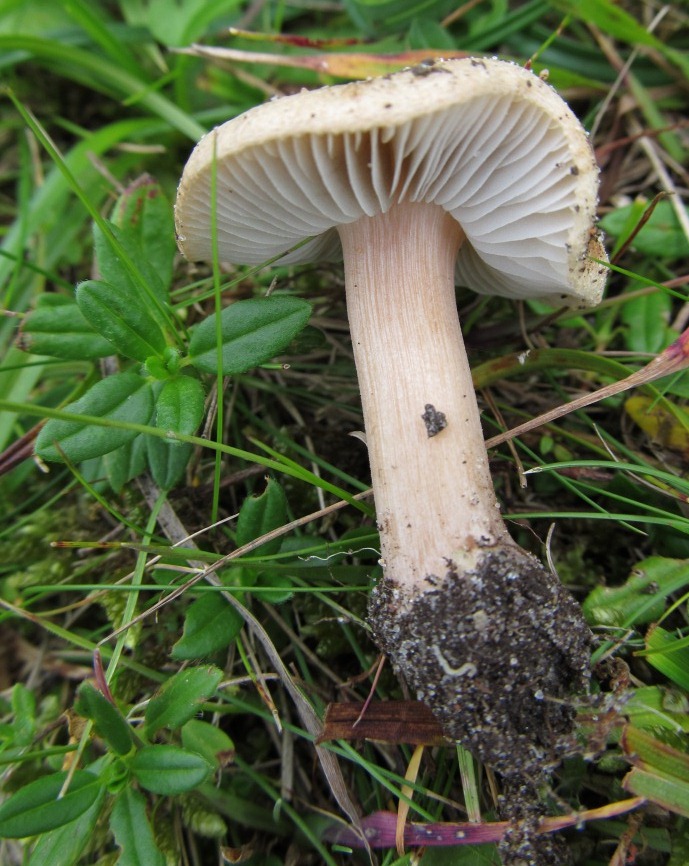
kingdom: Fungi
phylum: Basidiomycota
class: Agaricomycetes
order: Agaricales
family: Inocybaceae
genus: Inocybe
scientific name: Inocybe
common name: trævlhat
